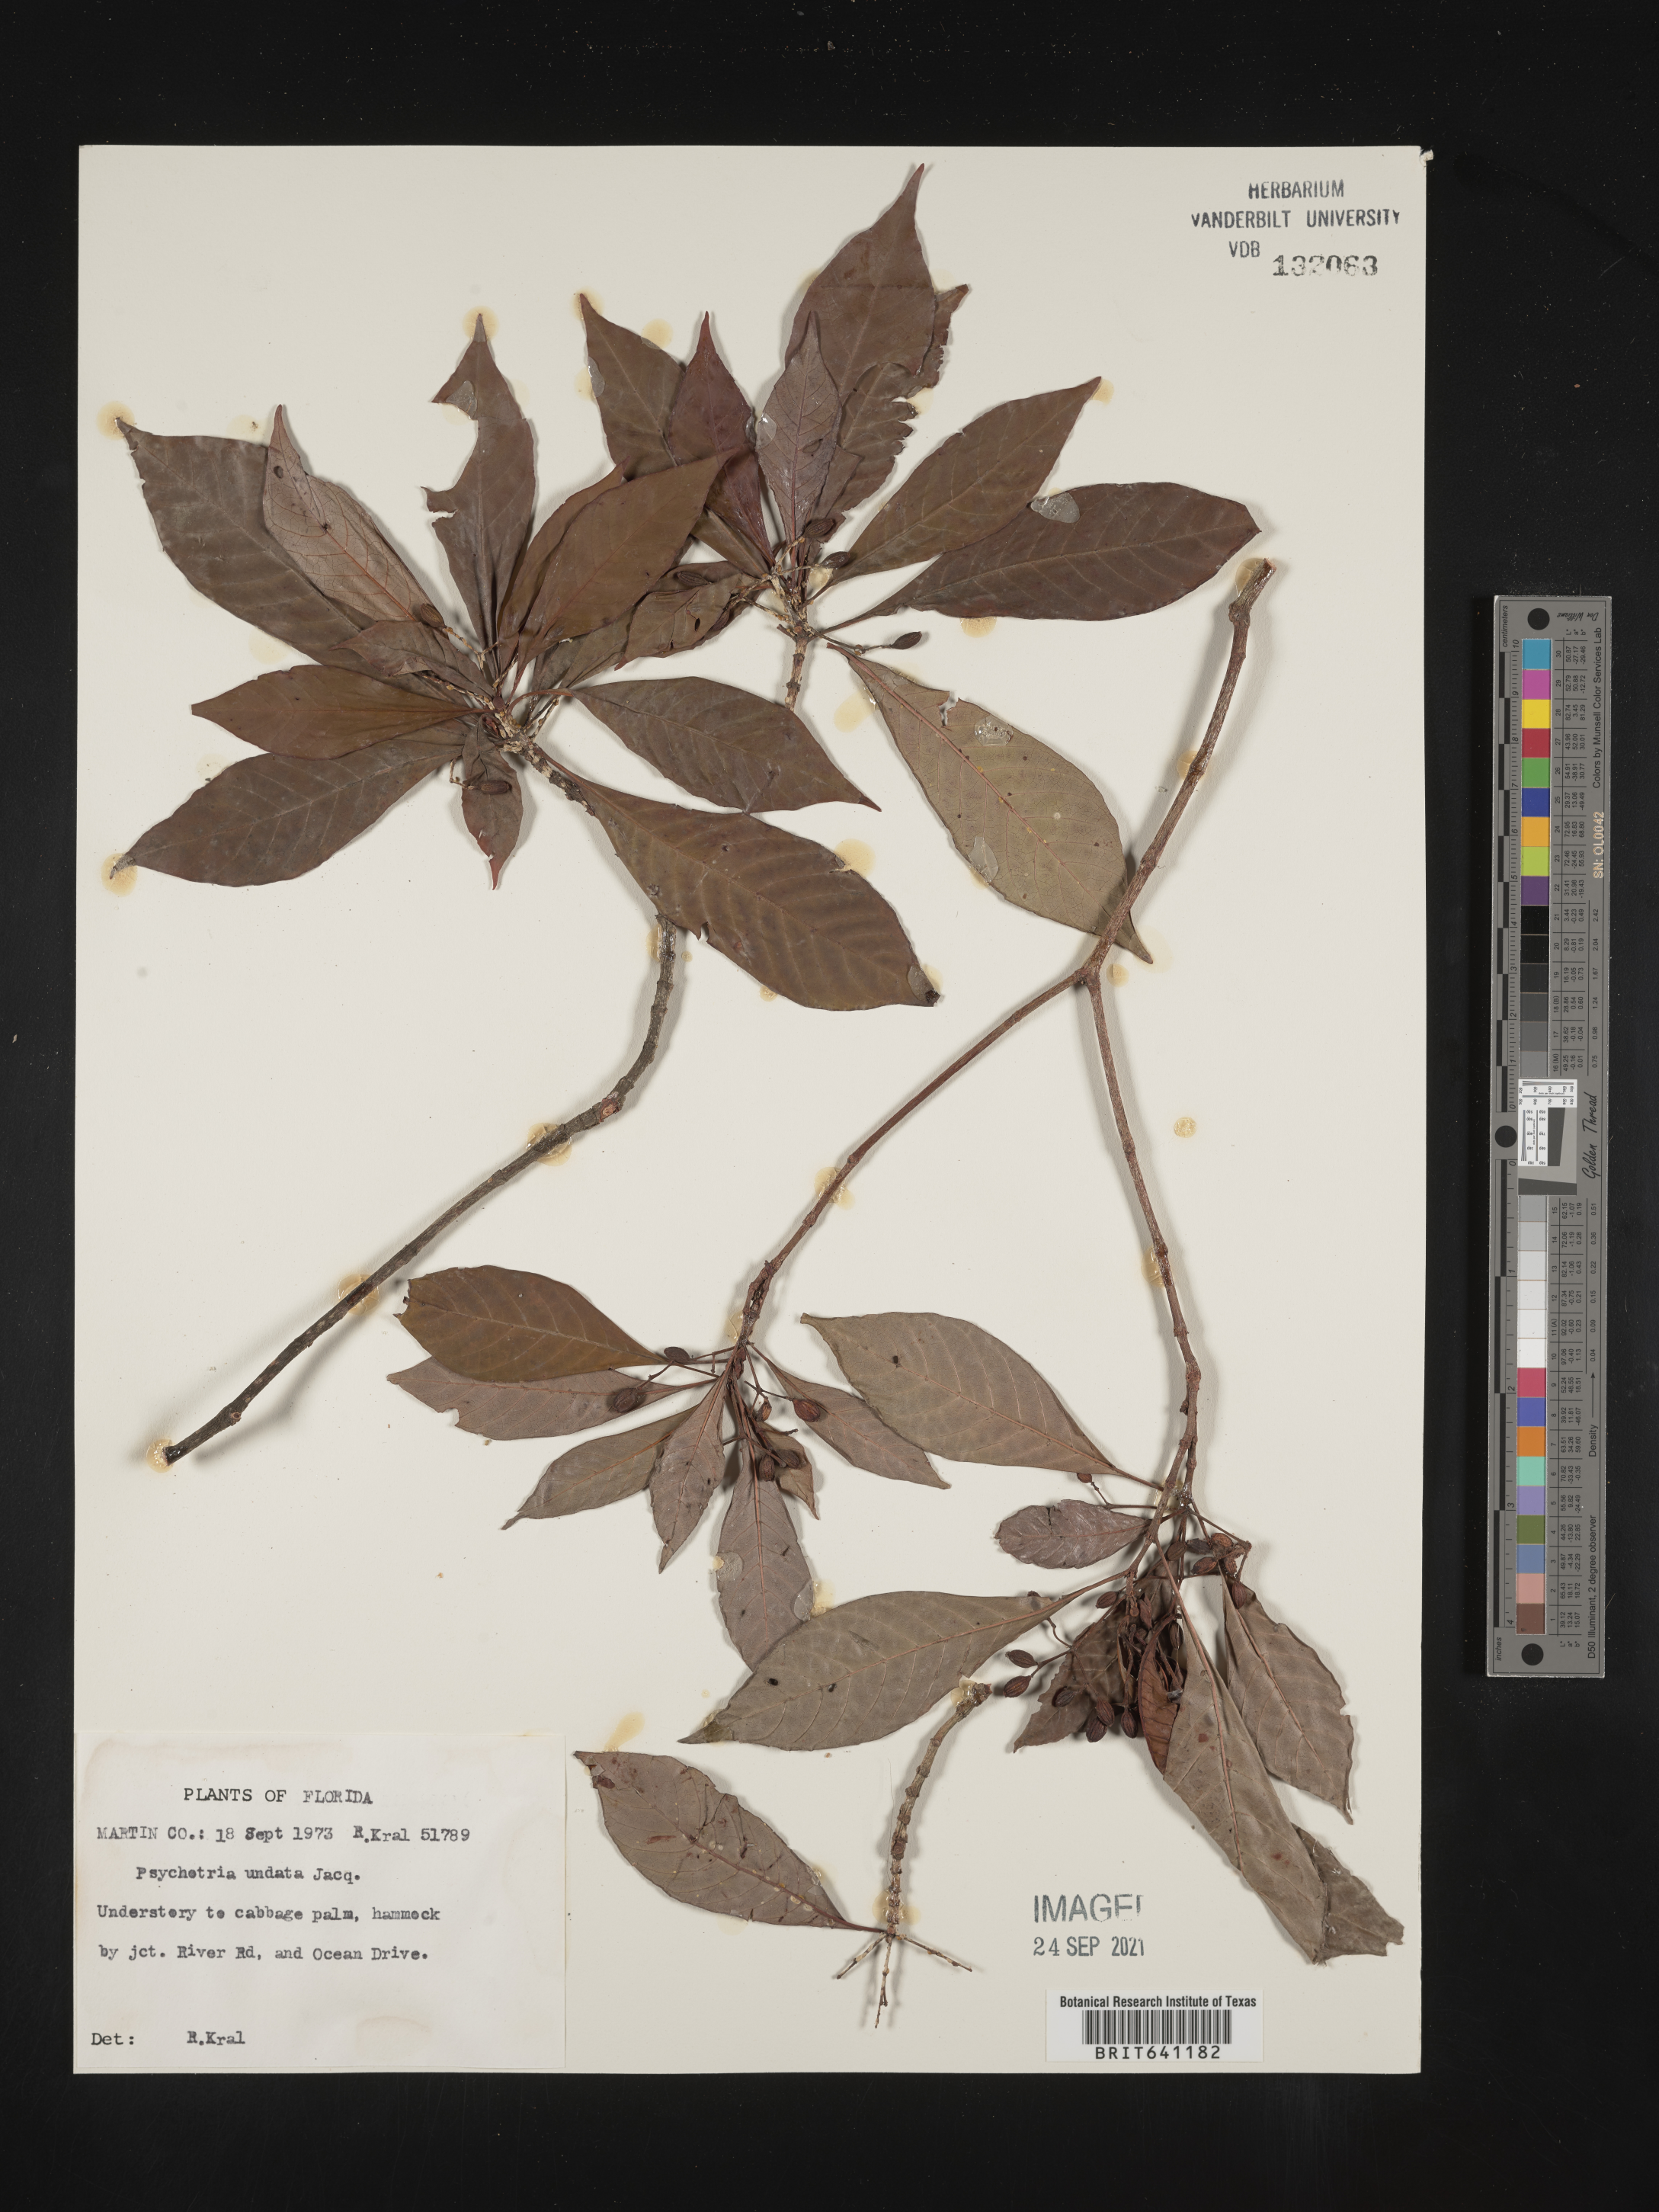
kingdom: Plantae
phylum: Tracheophyta
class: Magnoliopsida
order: Gentianales
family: Rubiaceae
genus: Psychotria
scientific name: Psychotria nervosa
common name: Bastard cankerberry
